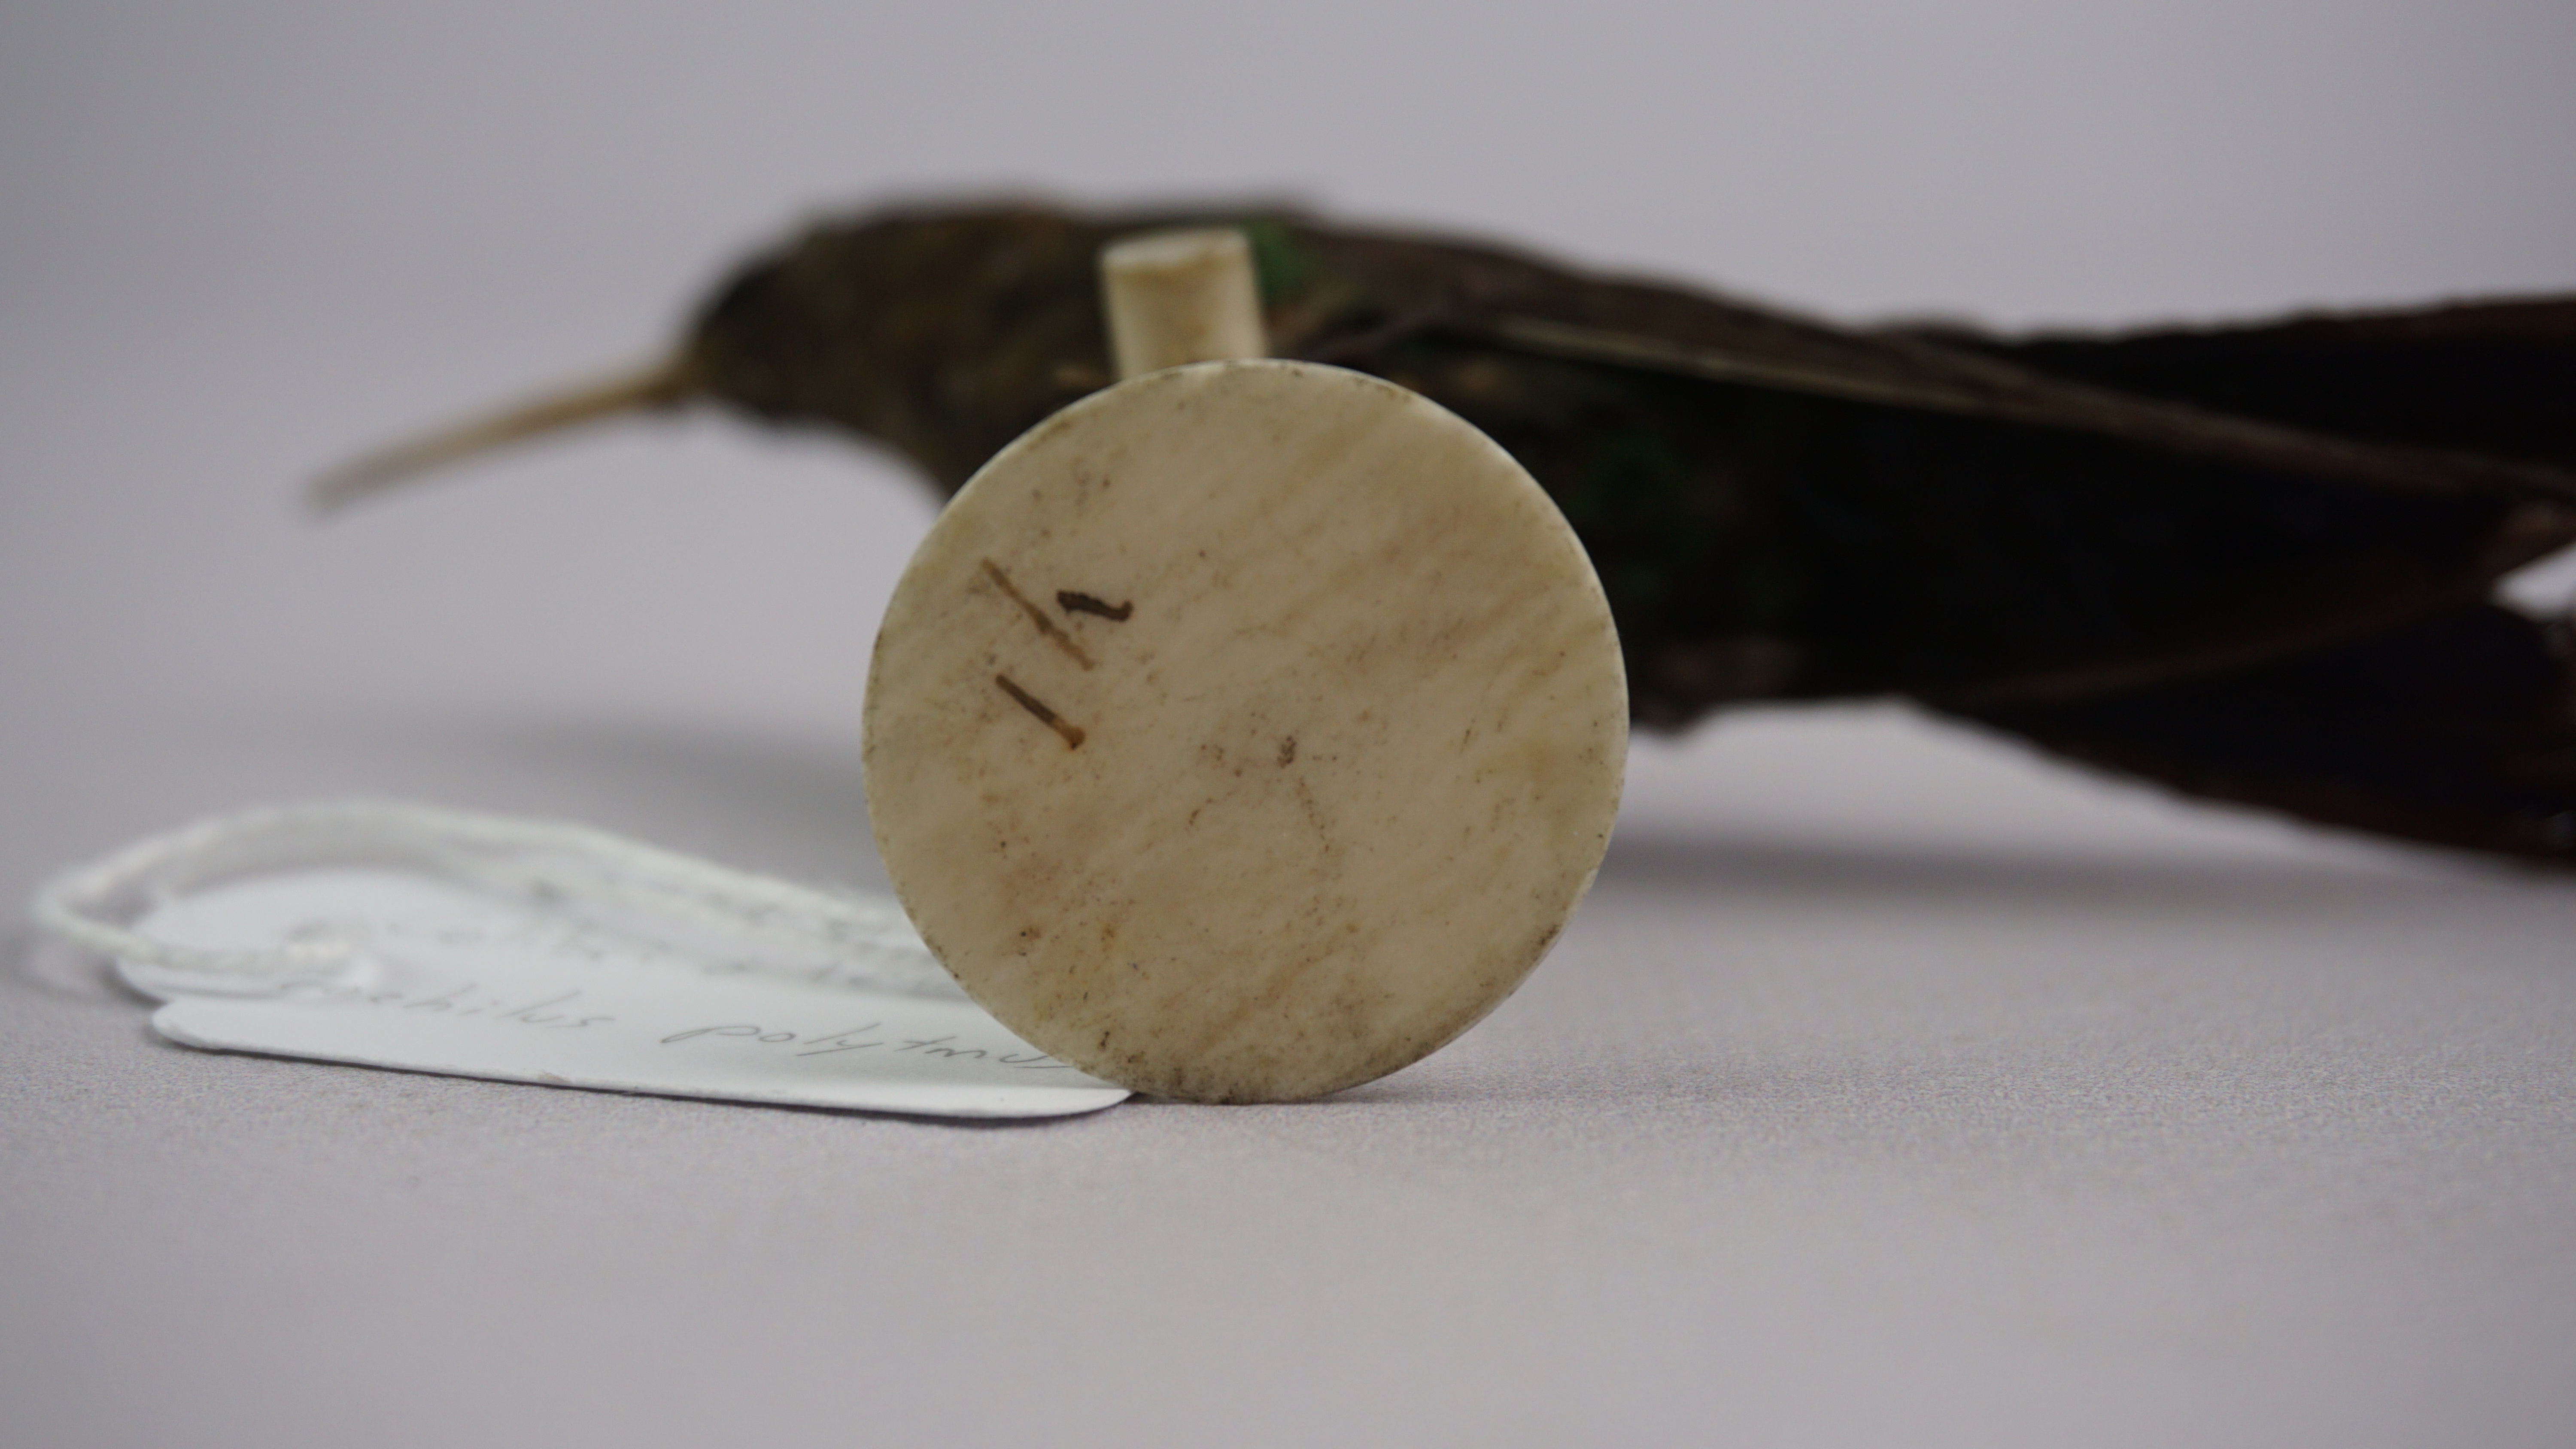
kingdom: Animalia
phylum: Chordata
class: Aves
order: Apodiformes
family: Trochilidae
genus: Trochilus
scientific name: Trochilus polytmus
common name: Red-billed streamertail
